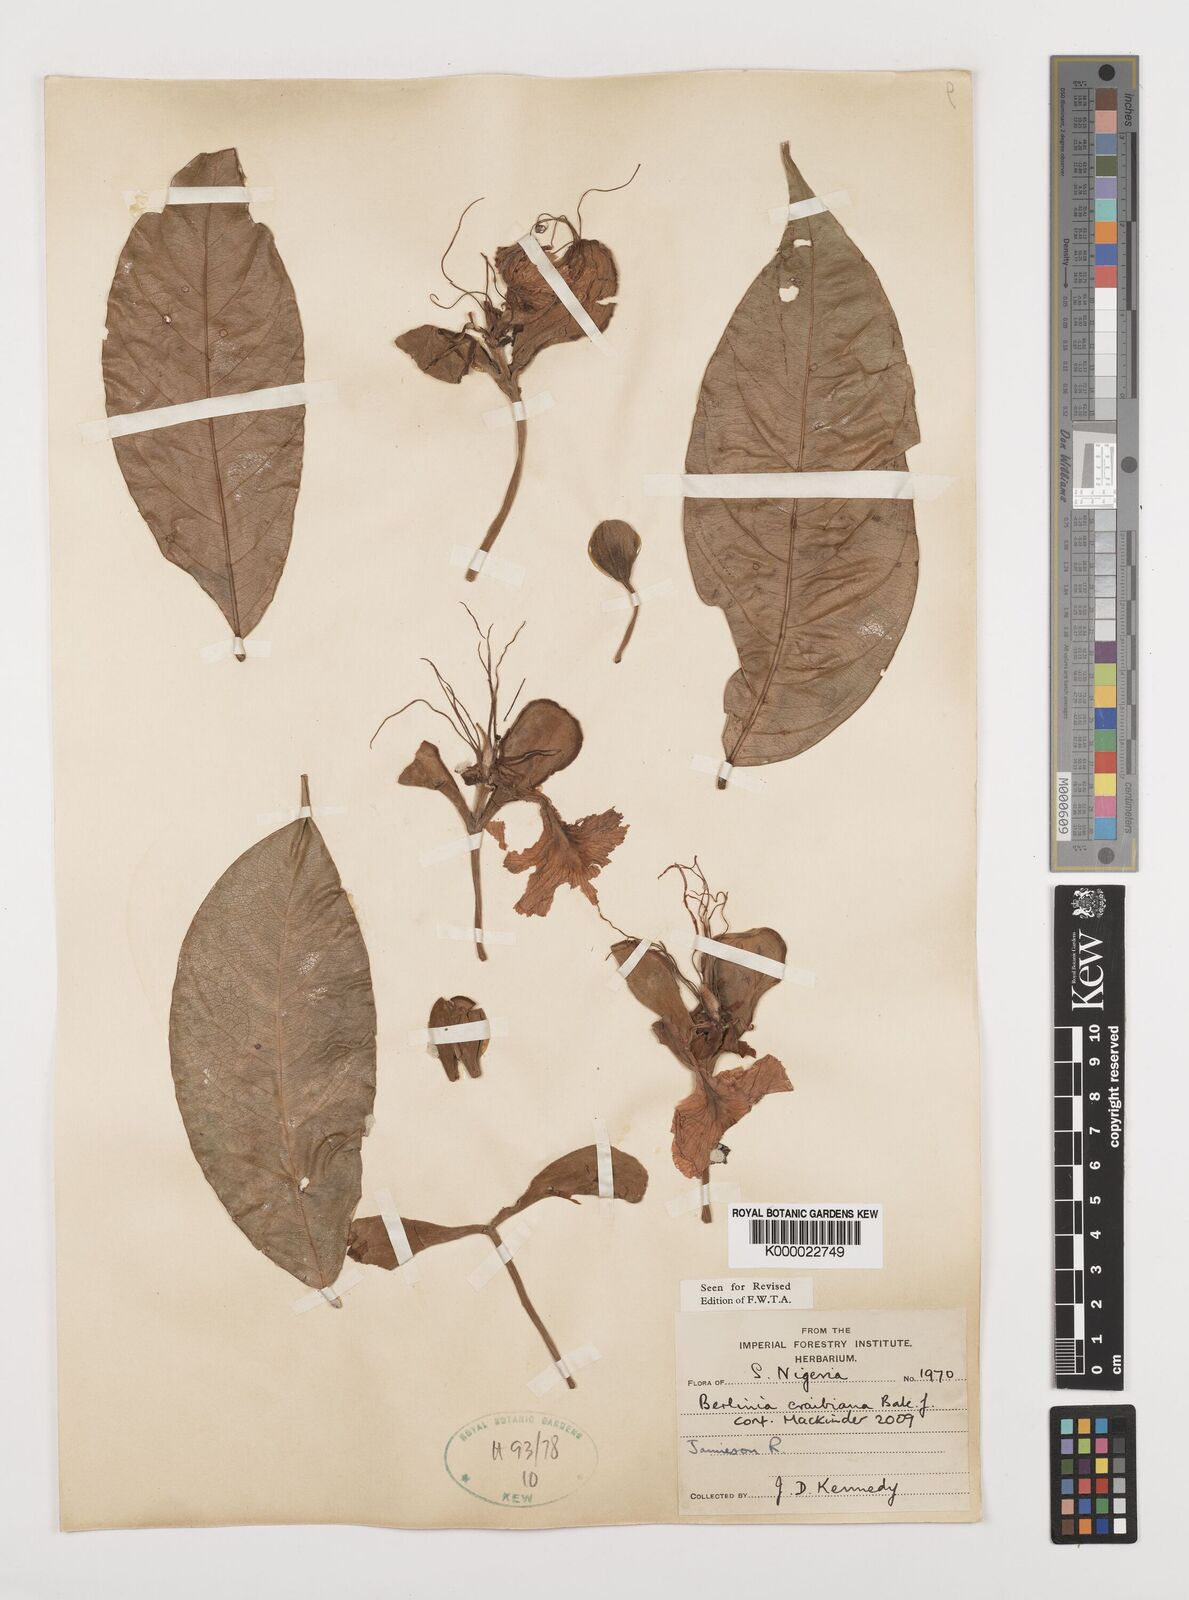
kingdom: Plantae
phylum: Tracheophyta
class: Magnoliopsida
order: Fabales
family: Fabaceae
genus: Berlinia
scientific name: Berlinia craibiana
